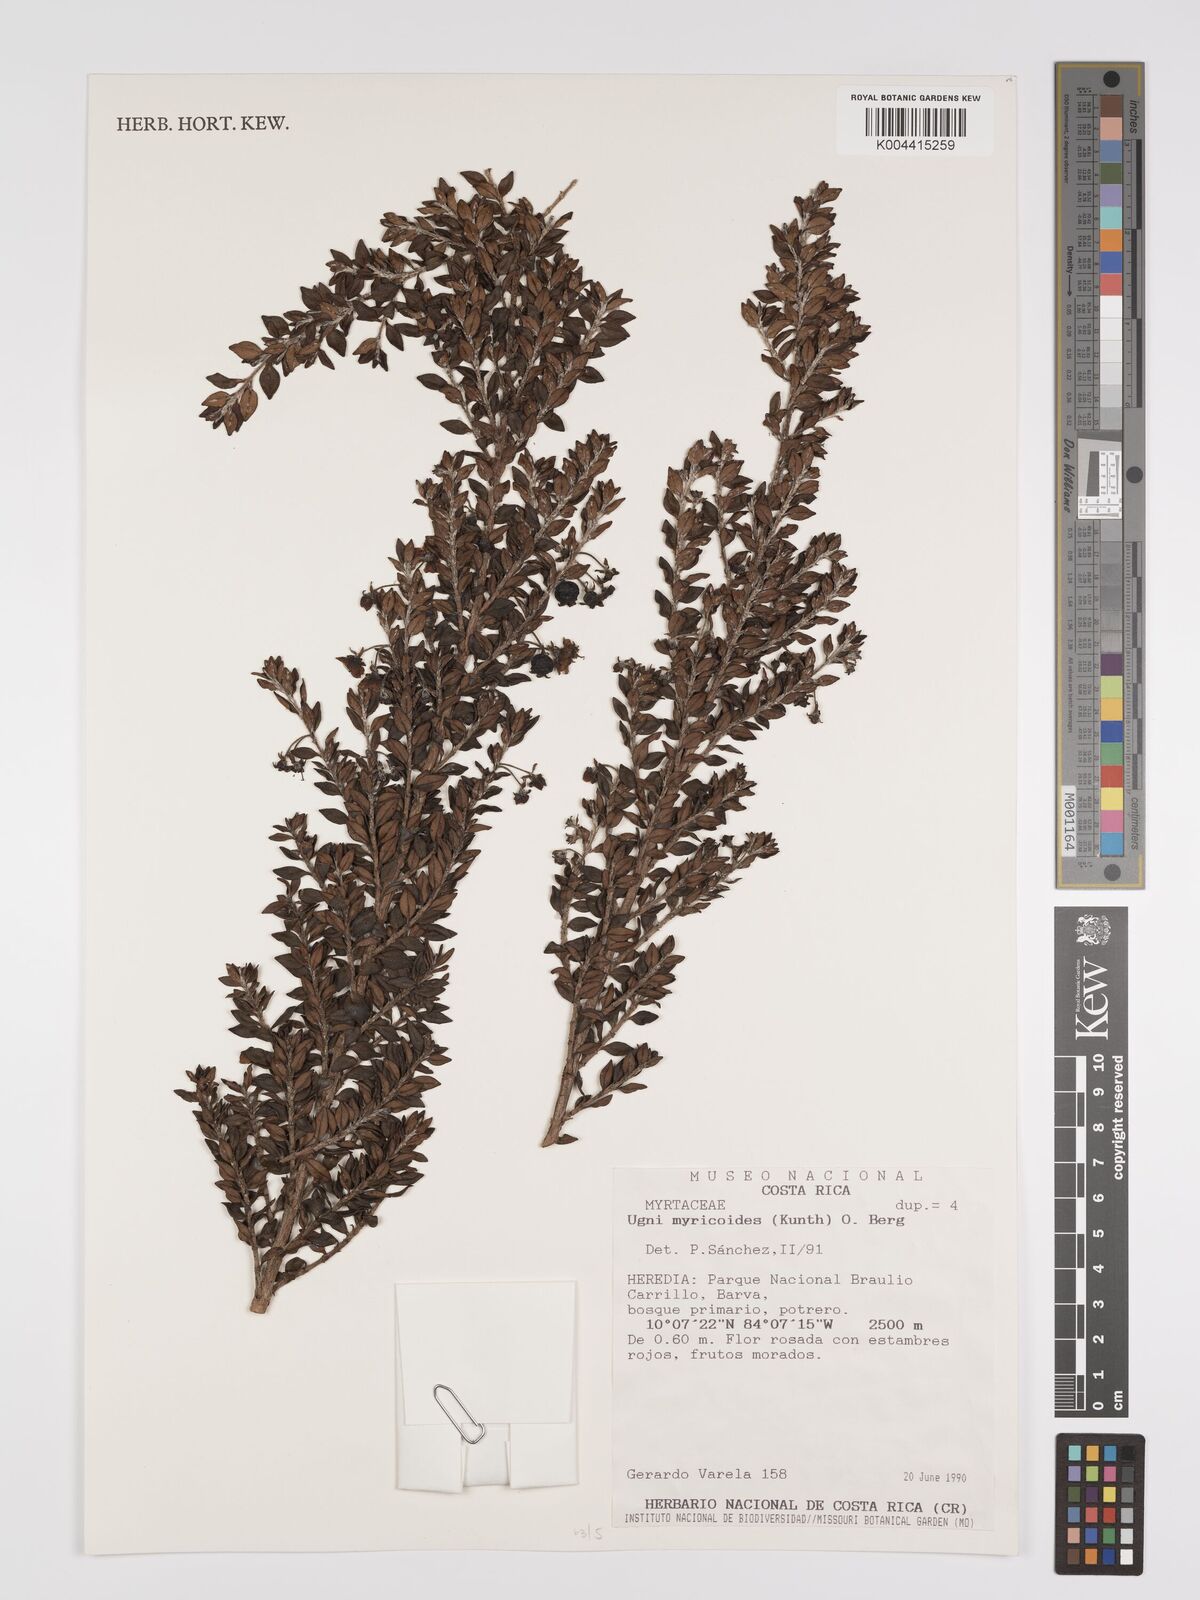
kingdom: Plantae
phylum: Tracheophyta
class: Magnoliopsida
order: Myrtales
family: Myrtaceae
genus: Ugni
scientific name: Ugni myricoides
